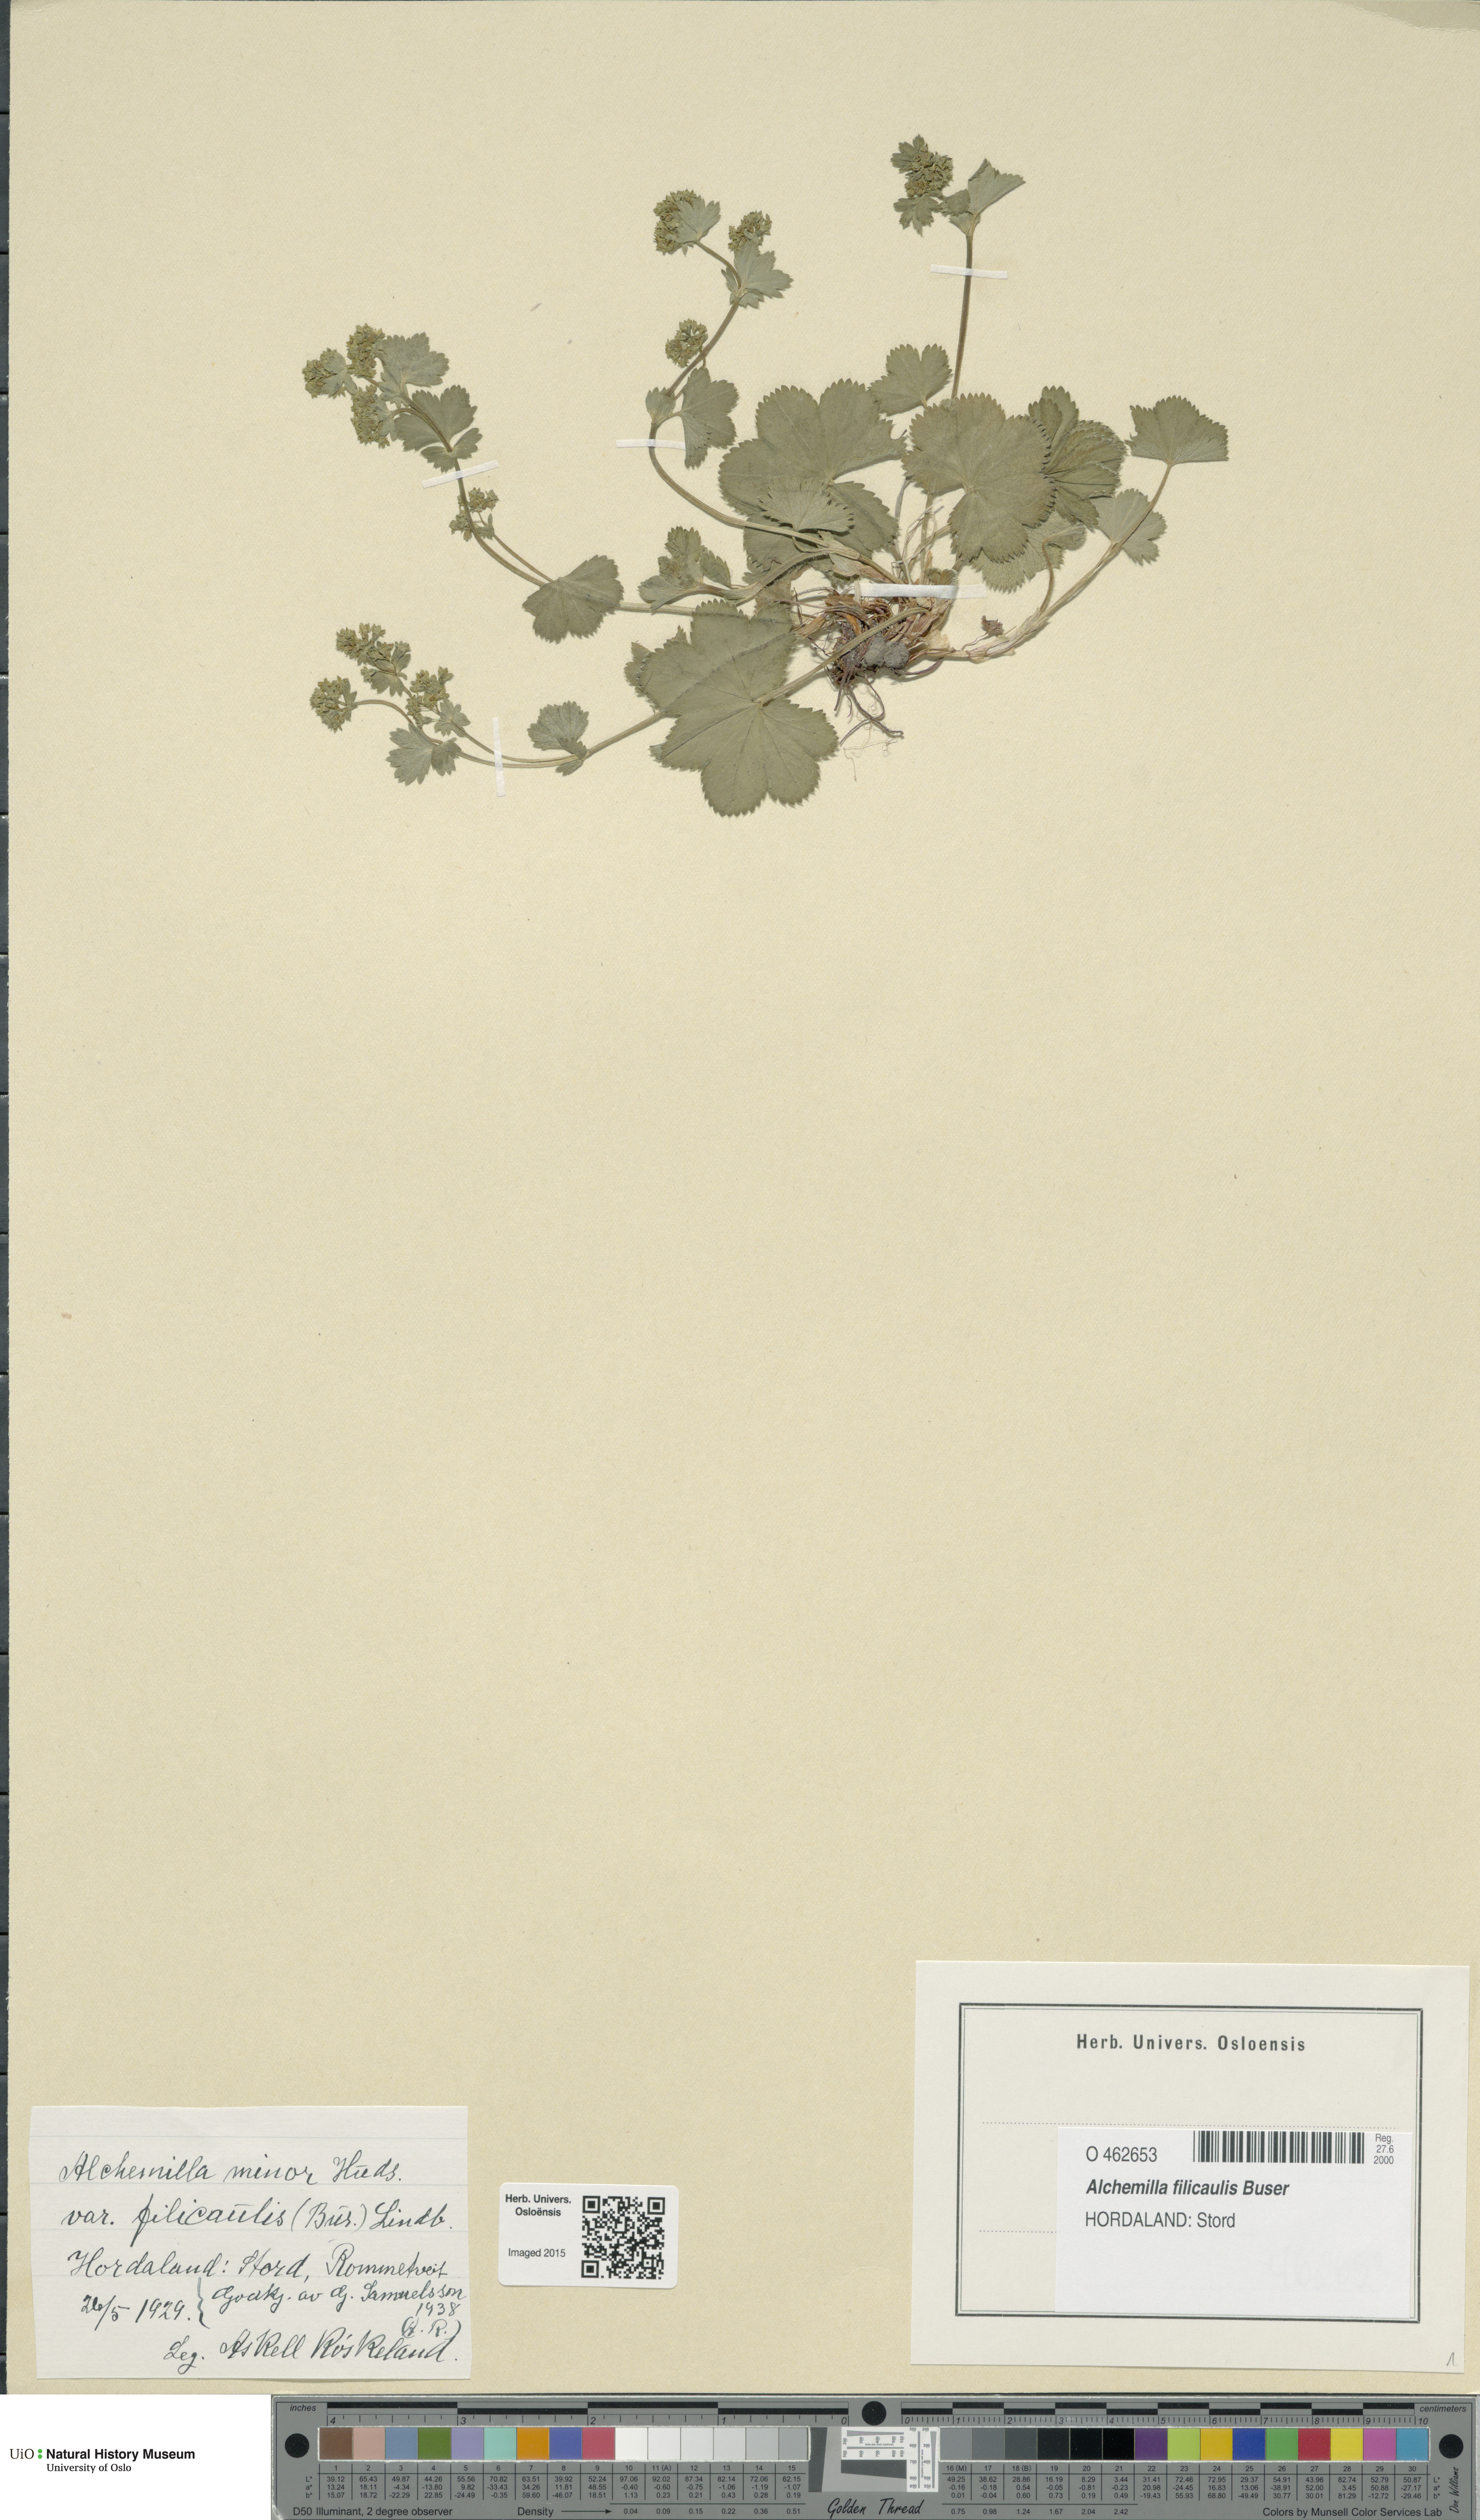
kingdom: Plantae
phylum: Tracheophyta
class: Magnoliopsida
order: Rosales
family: Rosaceae
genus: Alchemilla
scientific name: Alchemilla filicaulis
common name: Hairy lady's-mantle
